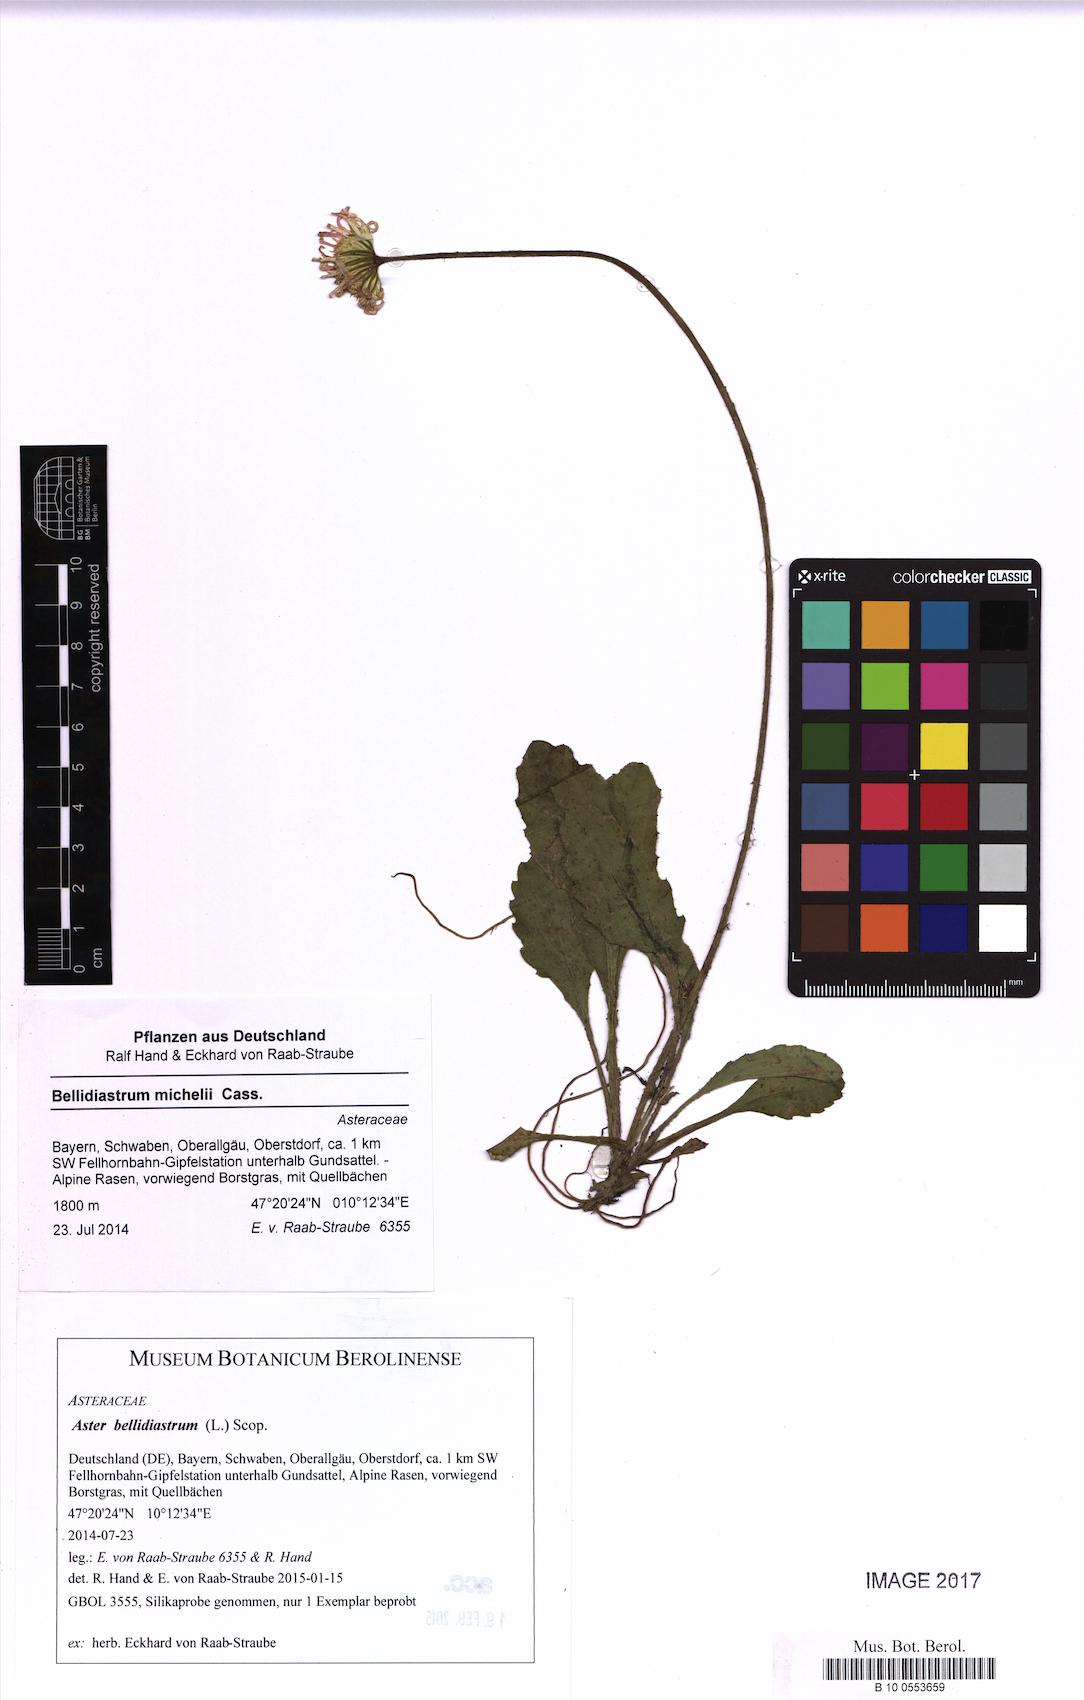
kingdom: Plantae
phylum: Tracheophyta
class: Magnoliopsida
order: Asterales
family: Asteraceae
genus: Bellidiastrum
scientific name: Bellidiastrum michelii
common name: Daisy-star aster
